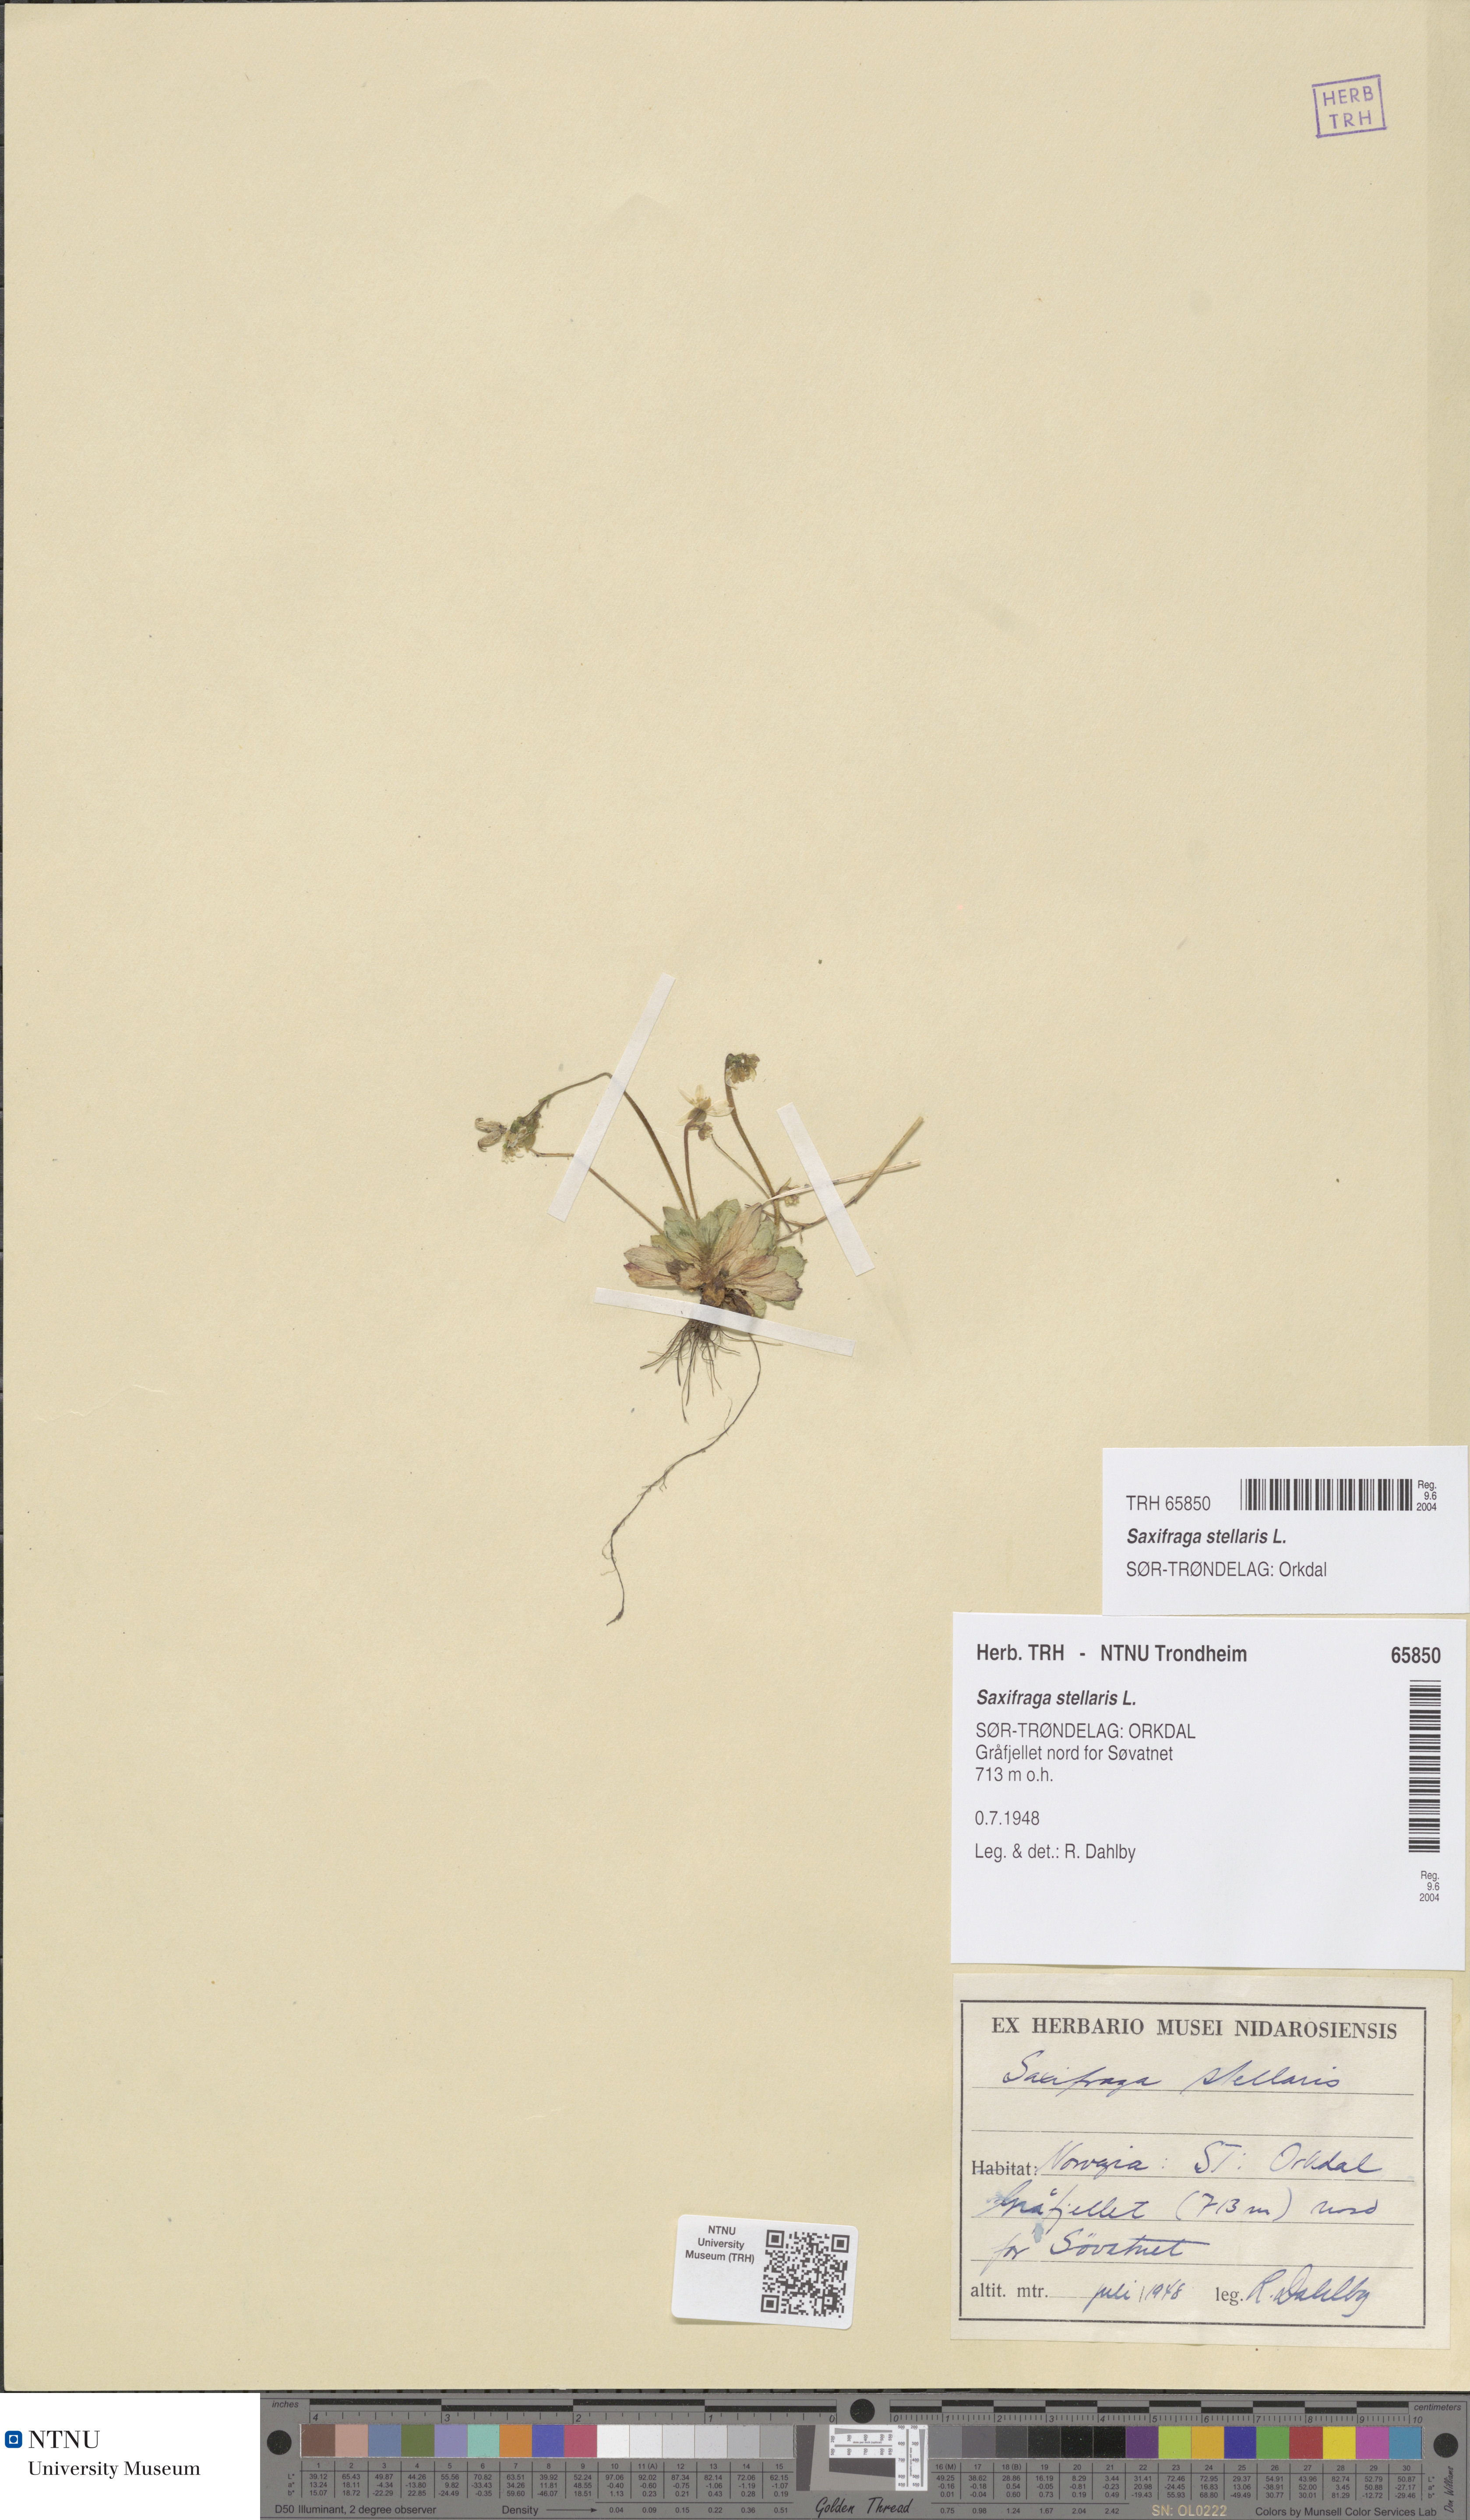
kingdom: Plantae
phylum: Tracheophyta
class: Magnoliopsida
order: Saxifragales
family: Saxifragaceae
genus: Micranthes
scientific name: Micranthes stellaris
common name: Starry saxifrage
